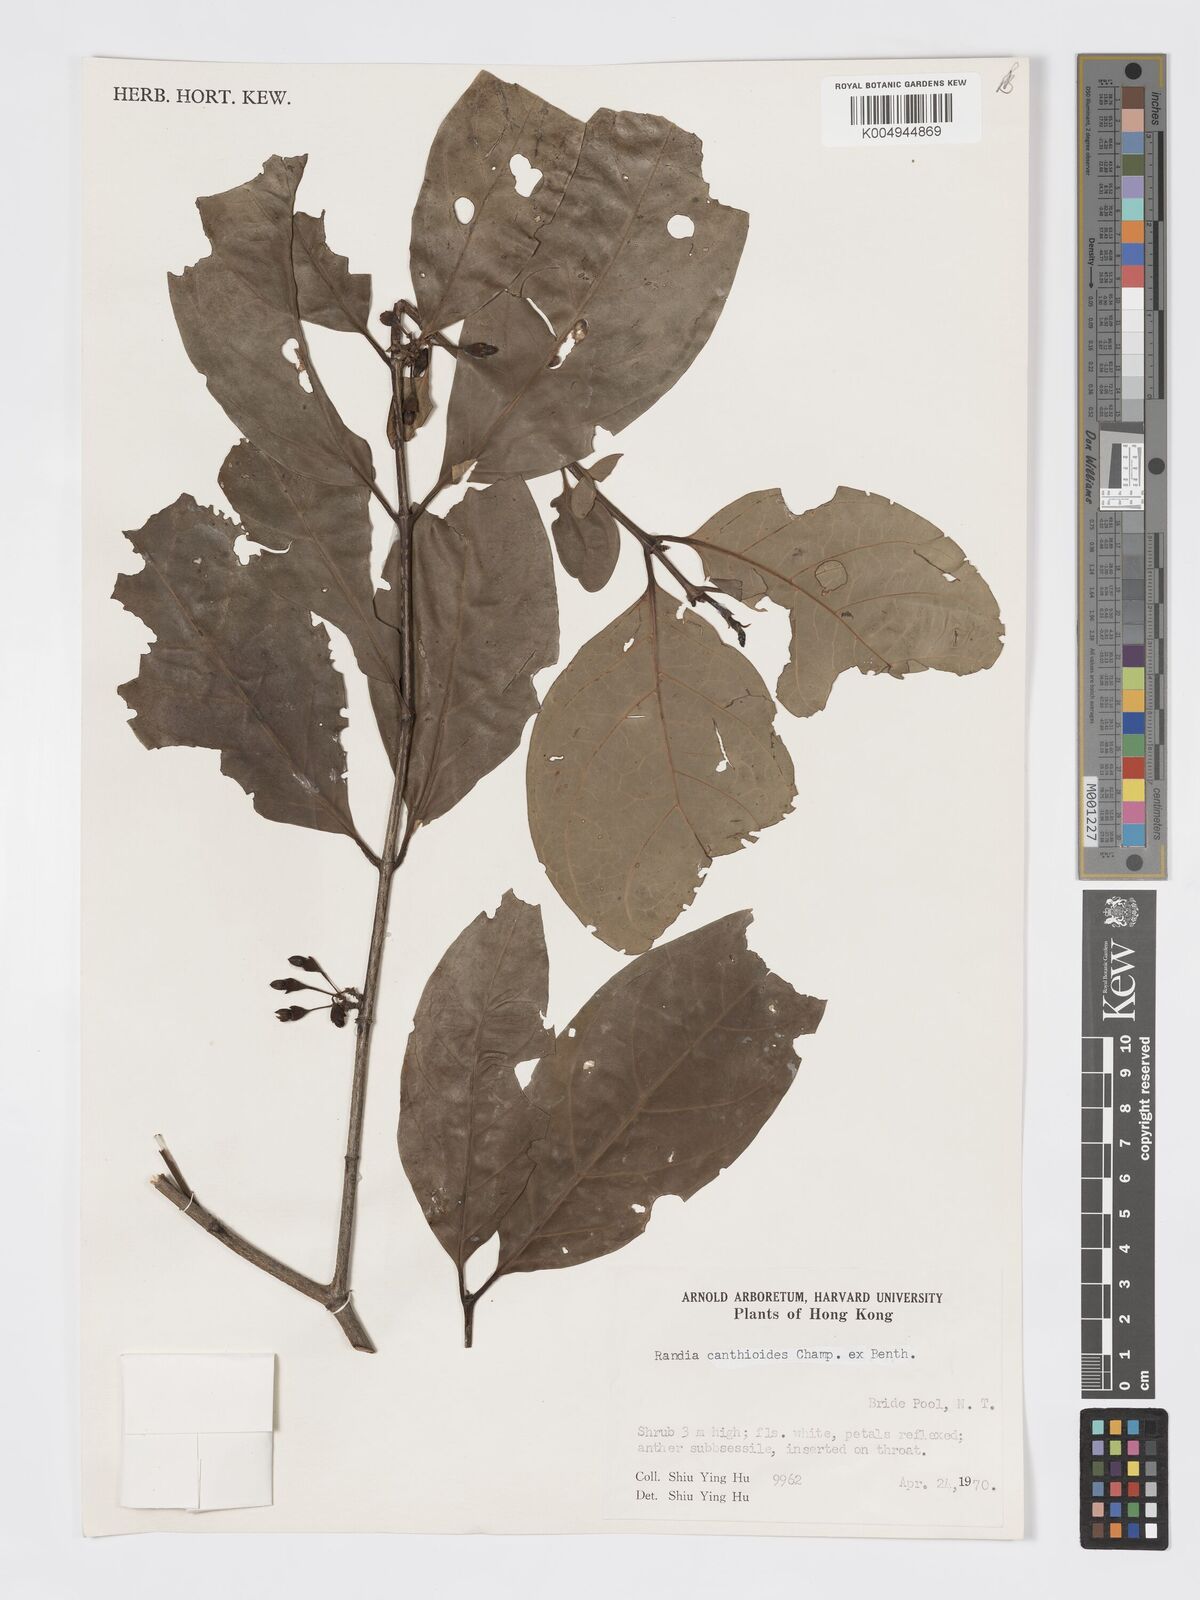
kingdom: Plantae
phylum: Tracheophyta
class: Magnoliopsida
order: Gentianales
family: Rubiaceae
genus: Aidia
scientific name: Aidia canthioides
